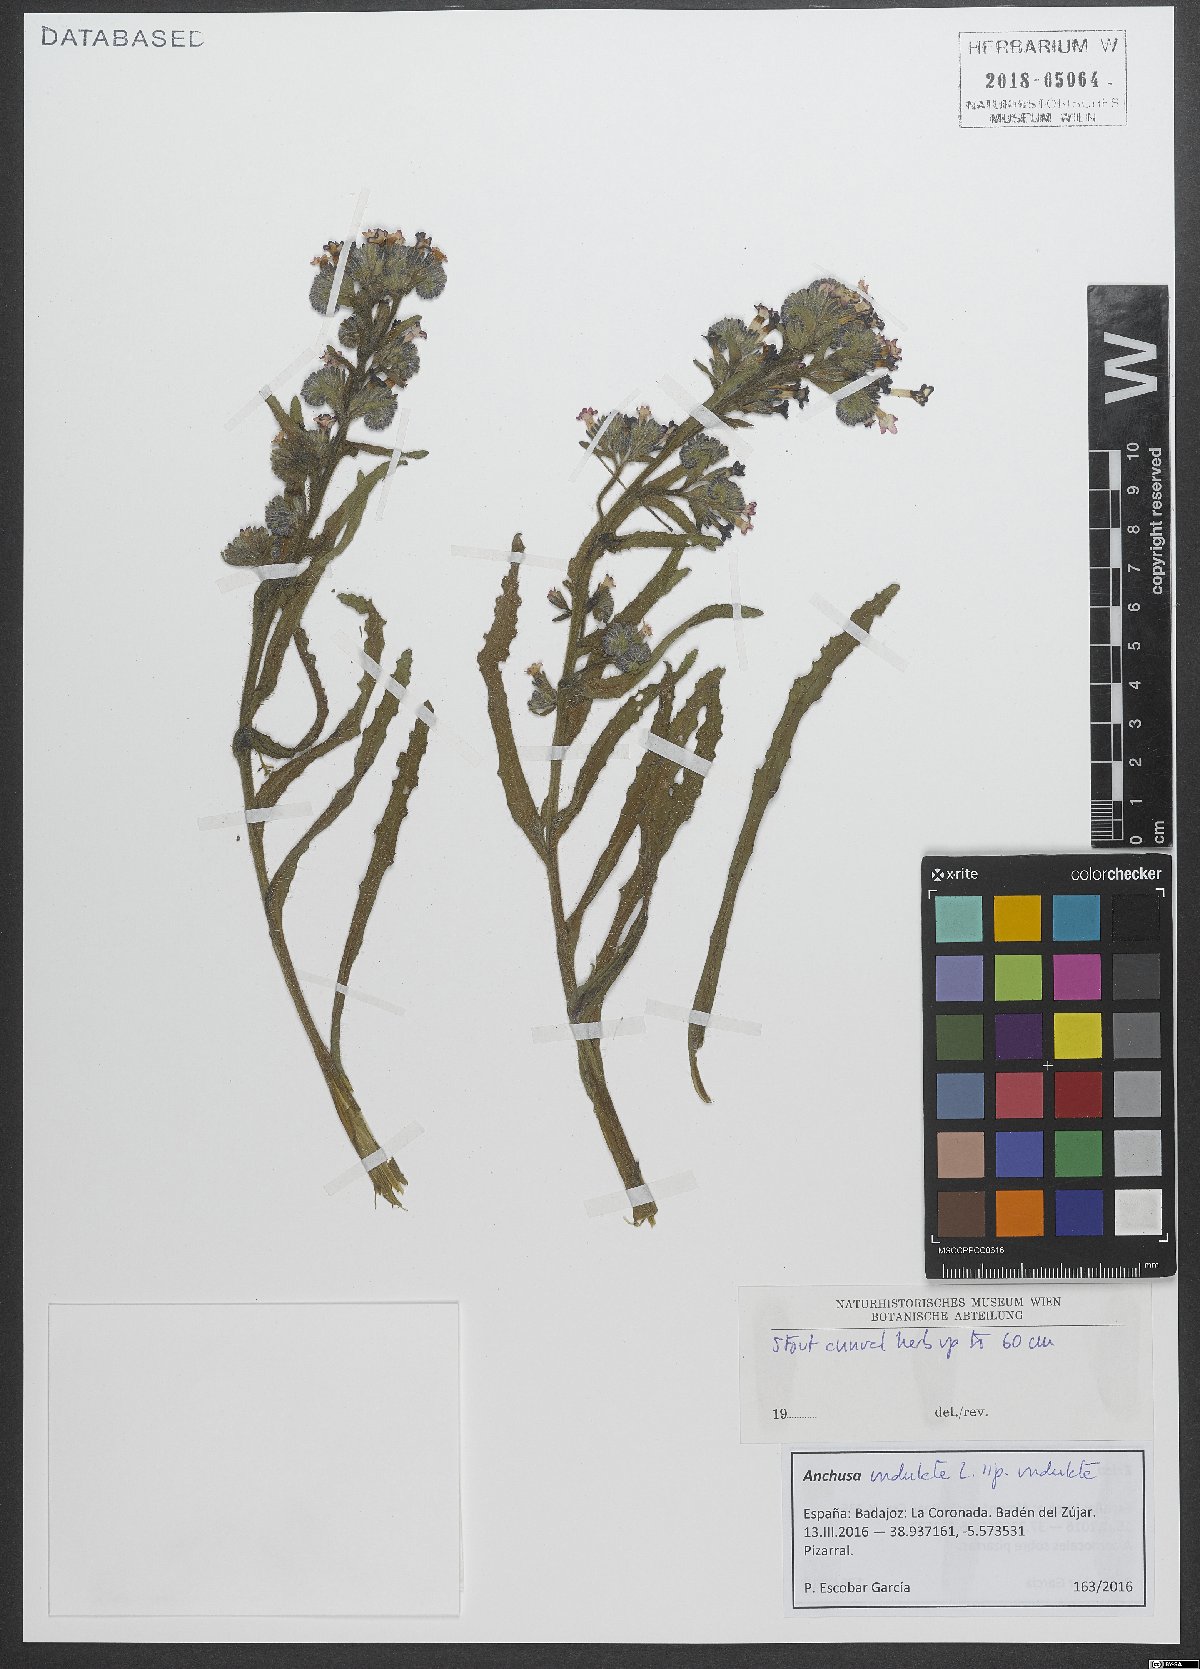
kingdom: Plantae
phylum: Tracheophyta
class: Magnoliopsida
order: Boraginales
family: Boraginaceae
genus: Anchusa
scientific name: Anchusa undulata
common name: Undulate alkanet
